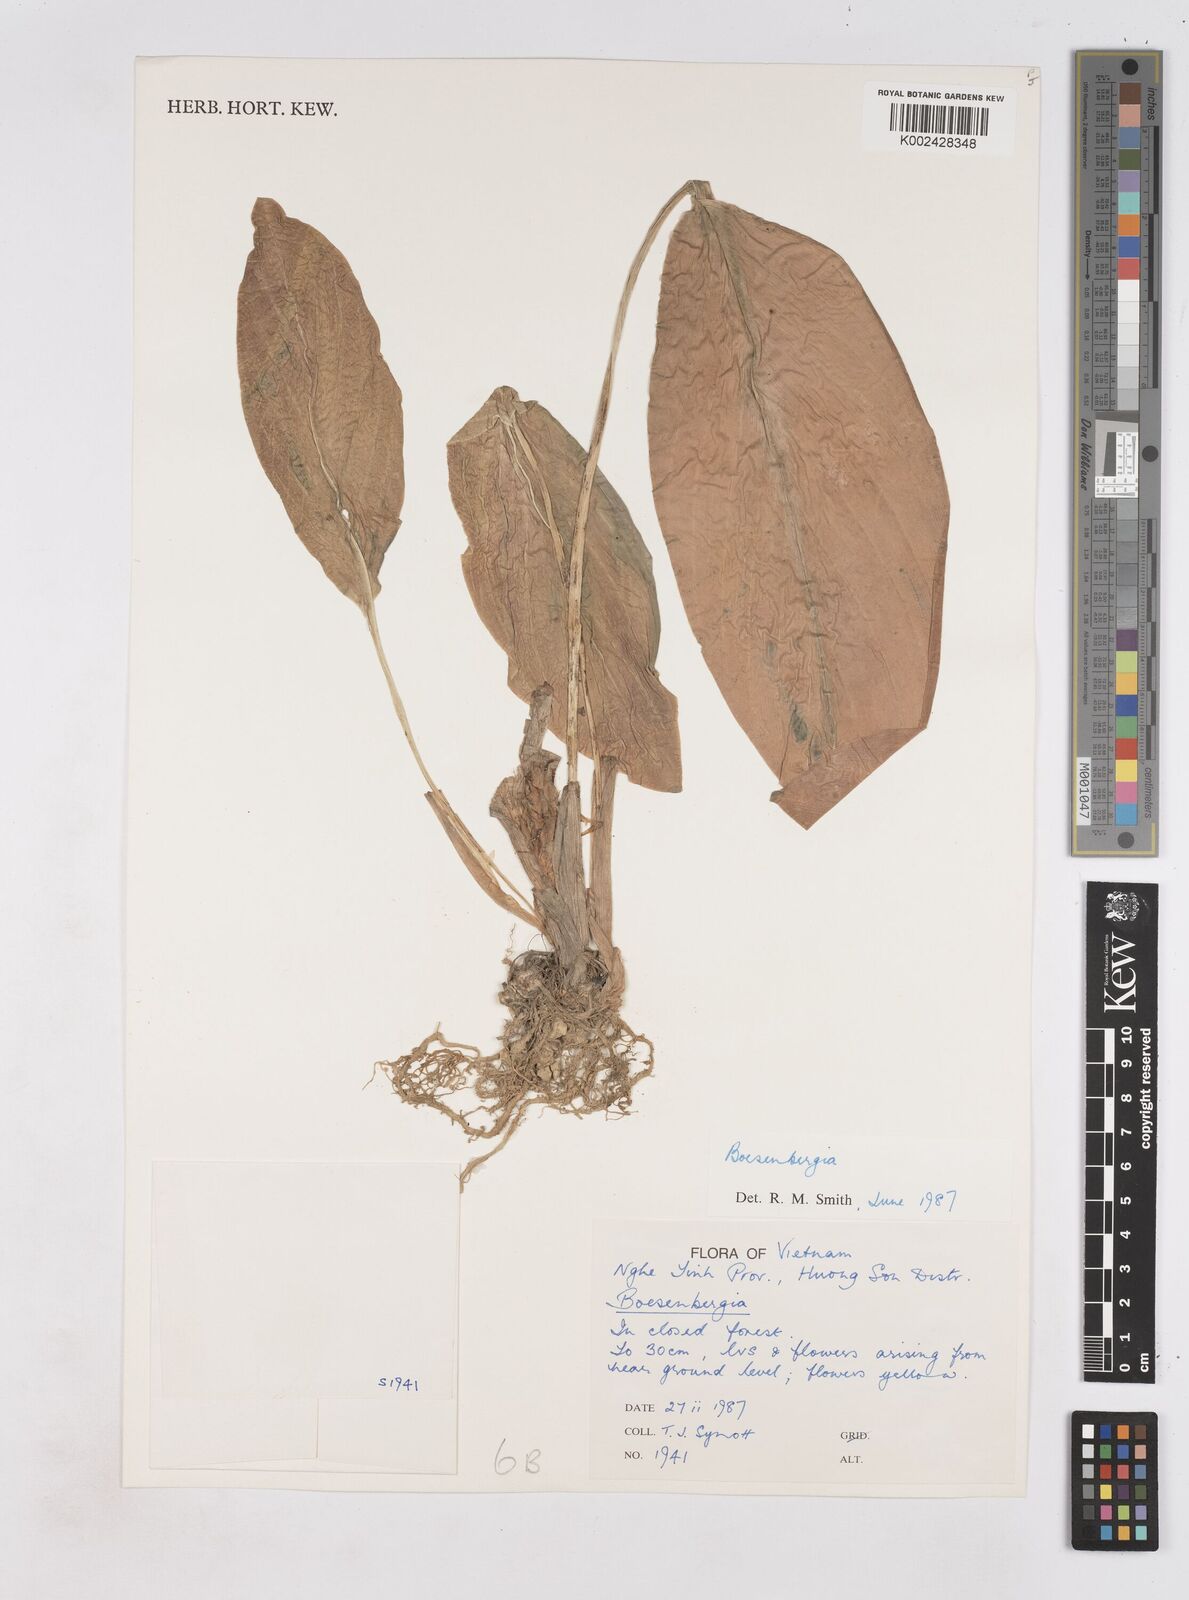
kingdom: Plantae
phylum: Tracheophyta
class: Liliopsida
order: Zingiberales
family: Zingiberaceae
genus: Boesenbergia
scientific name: Boesenbergia
